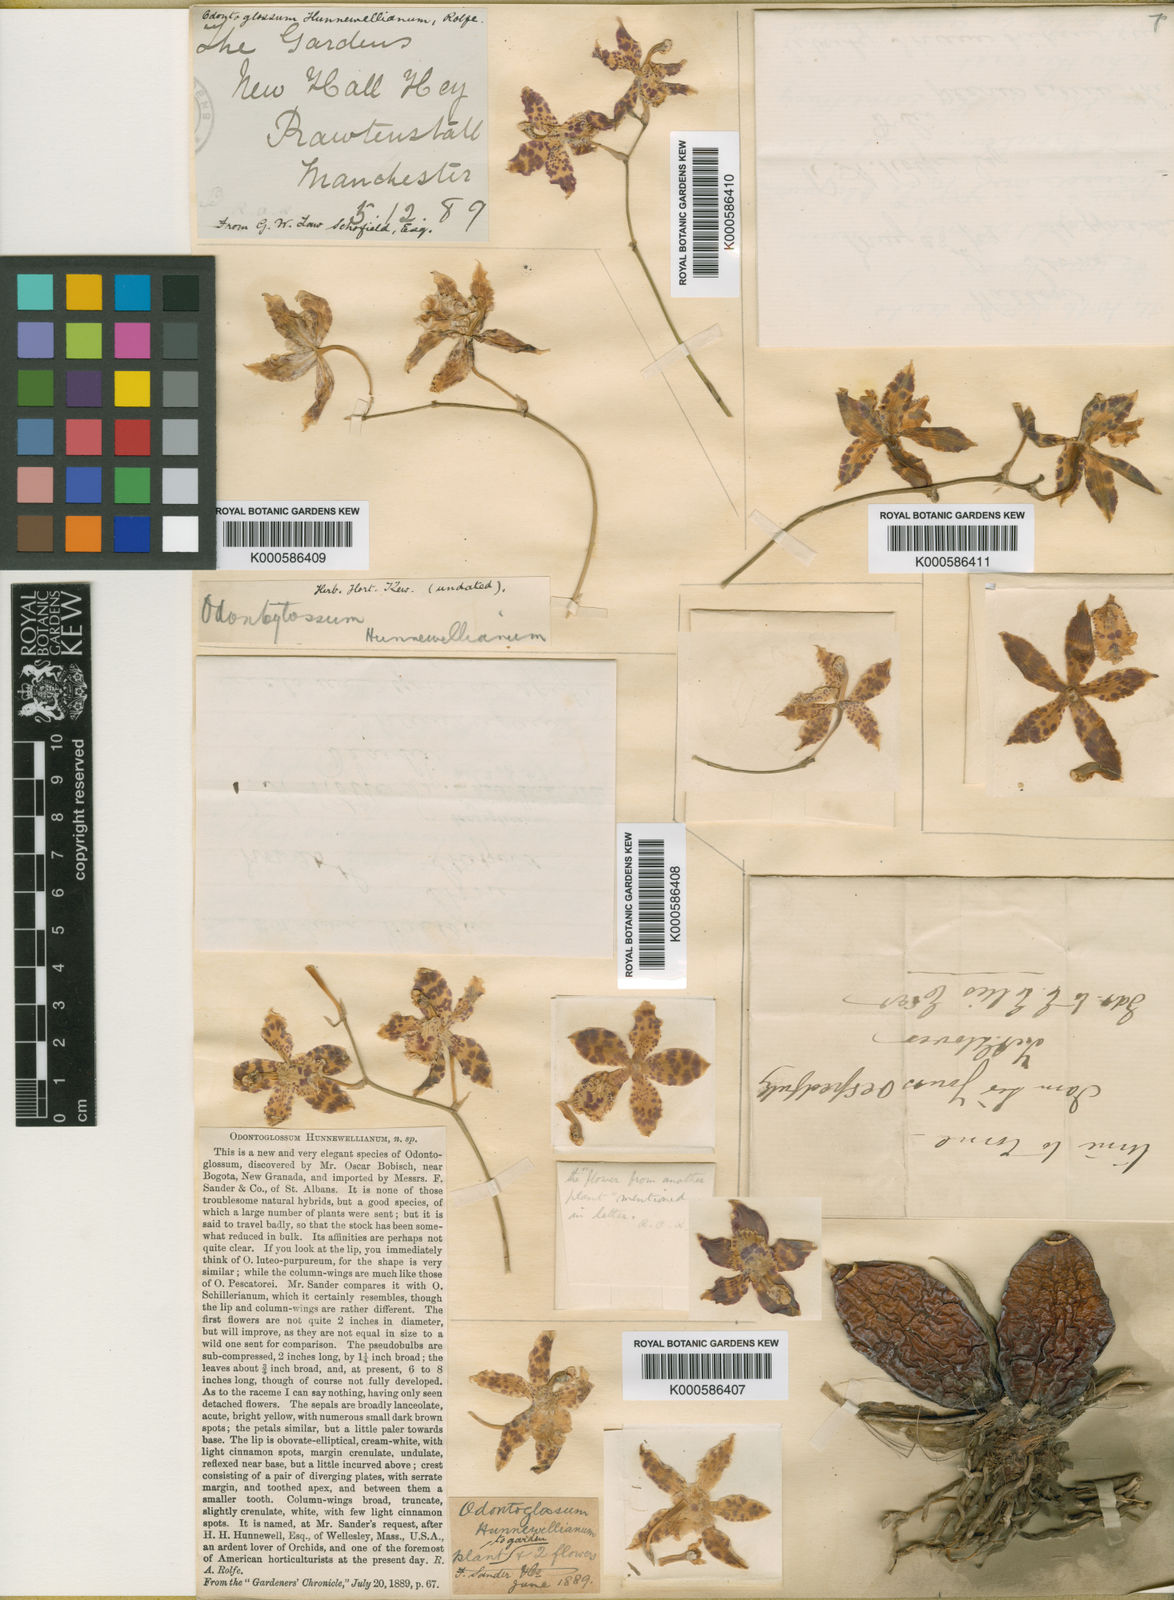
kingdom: Plantae
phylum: Tracheophyta
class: Liliopsida
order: Asparagales
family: Orchidaceae
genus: Oncidium
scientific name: Oncidium adrianae
